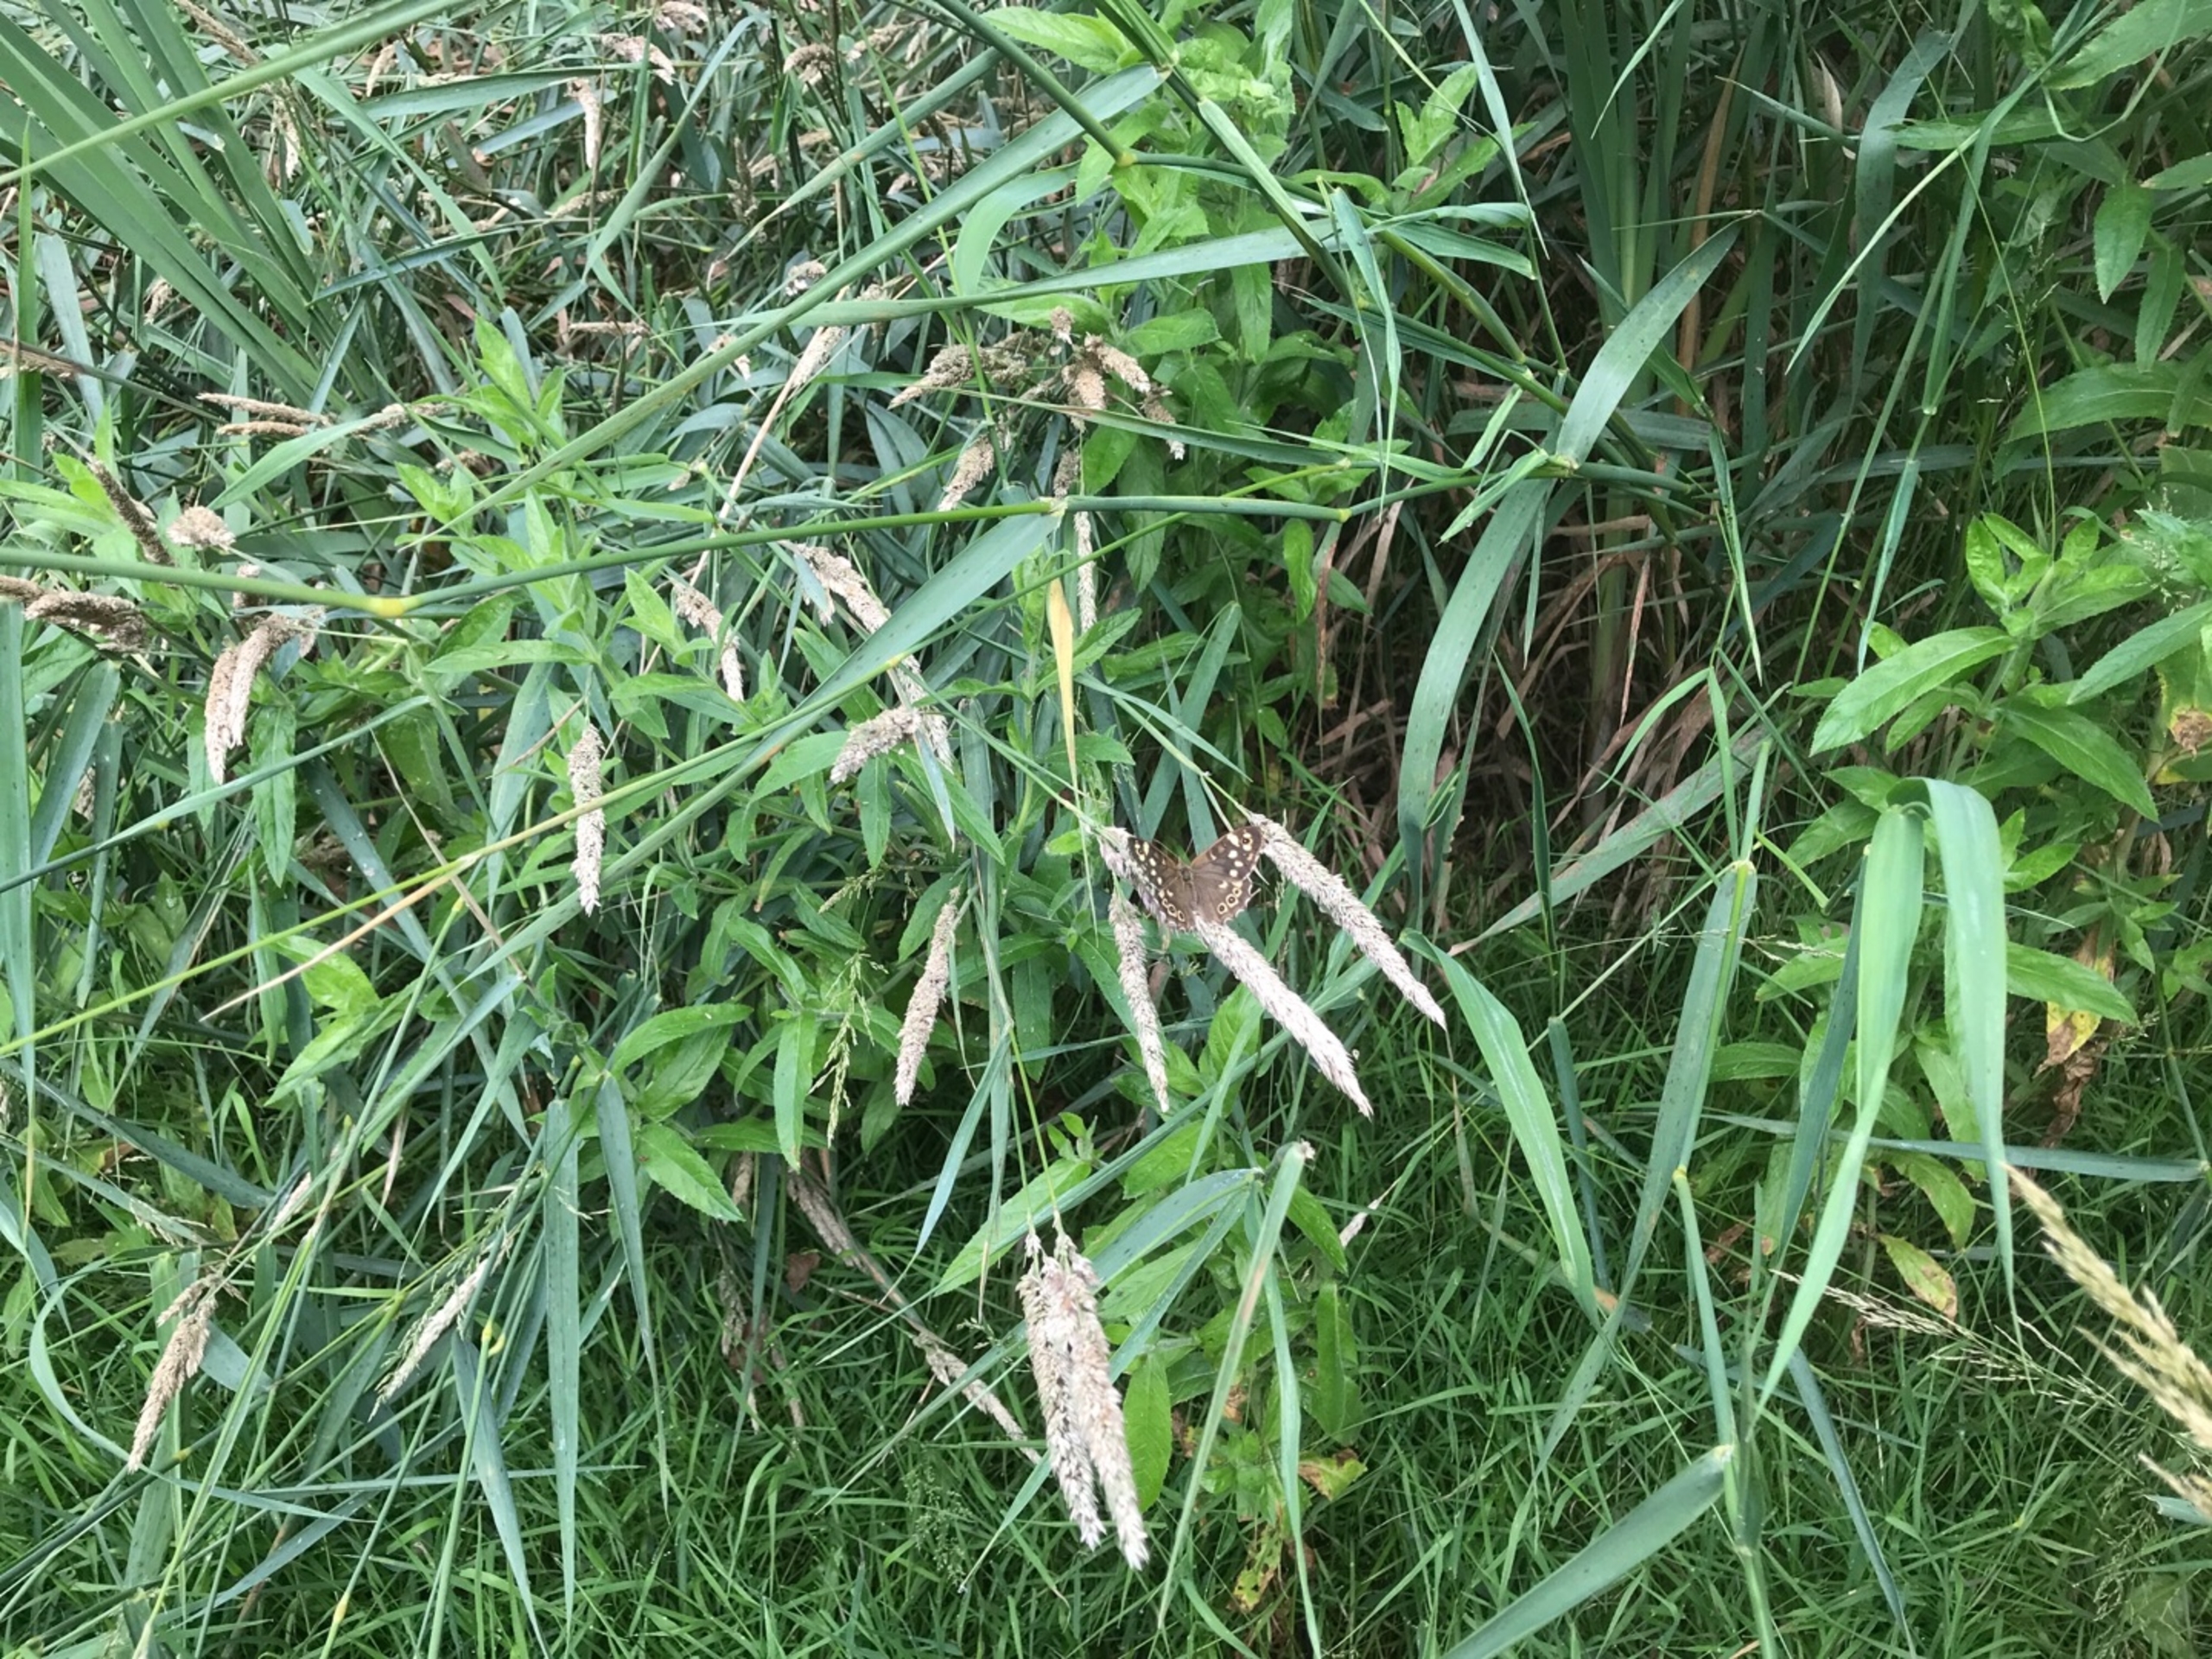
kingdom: Animalia
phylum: Arthropoda
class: Insecta
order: Lepidoptera
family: Nymphalidae
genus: Pararge
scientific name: Pararge aegeria
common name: Skovrandøje
